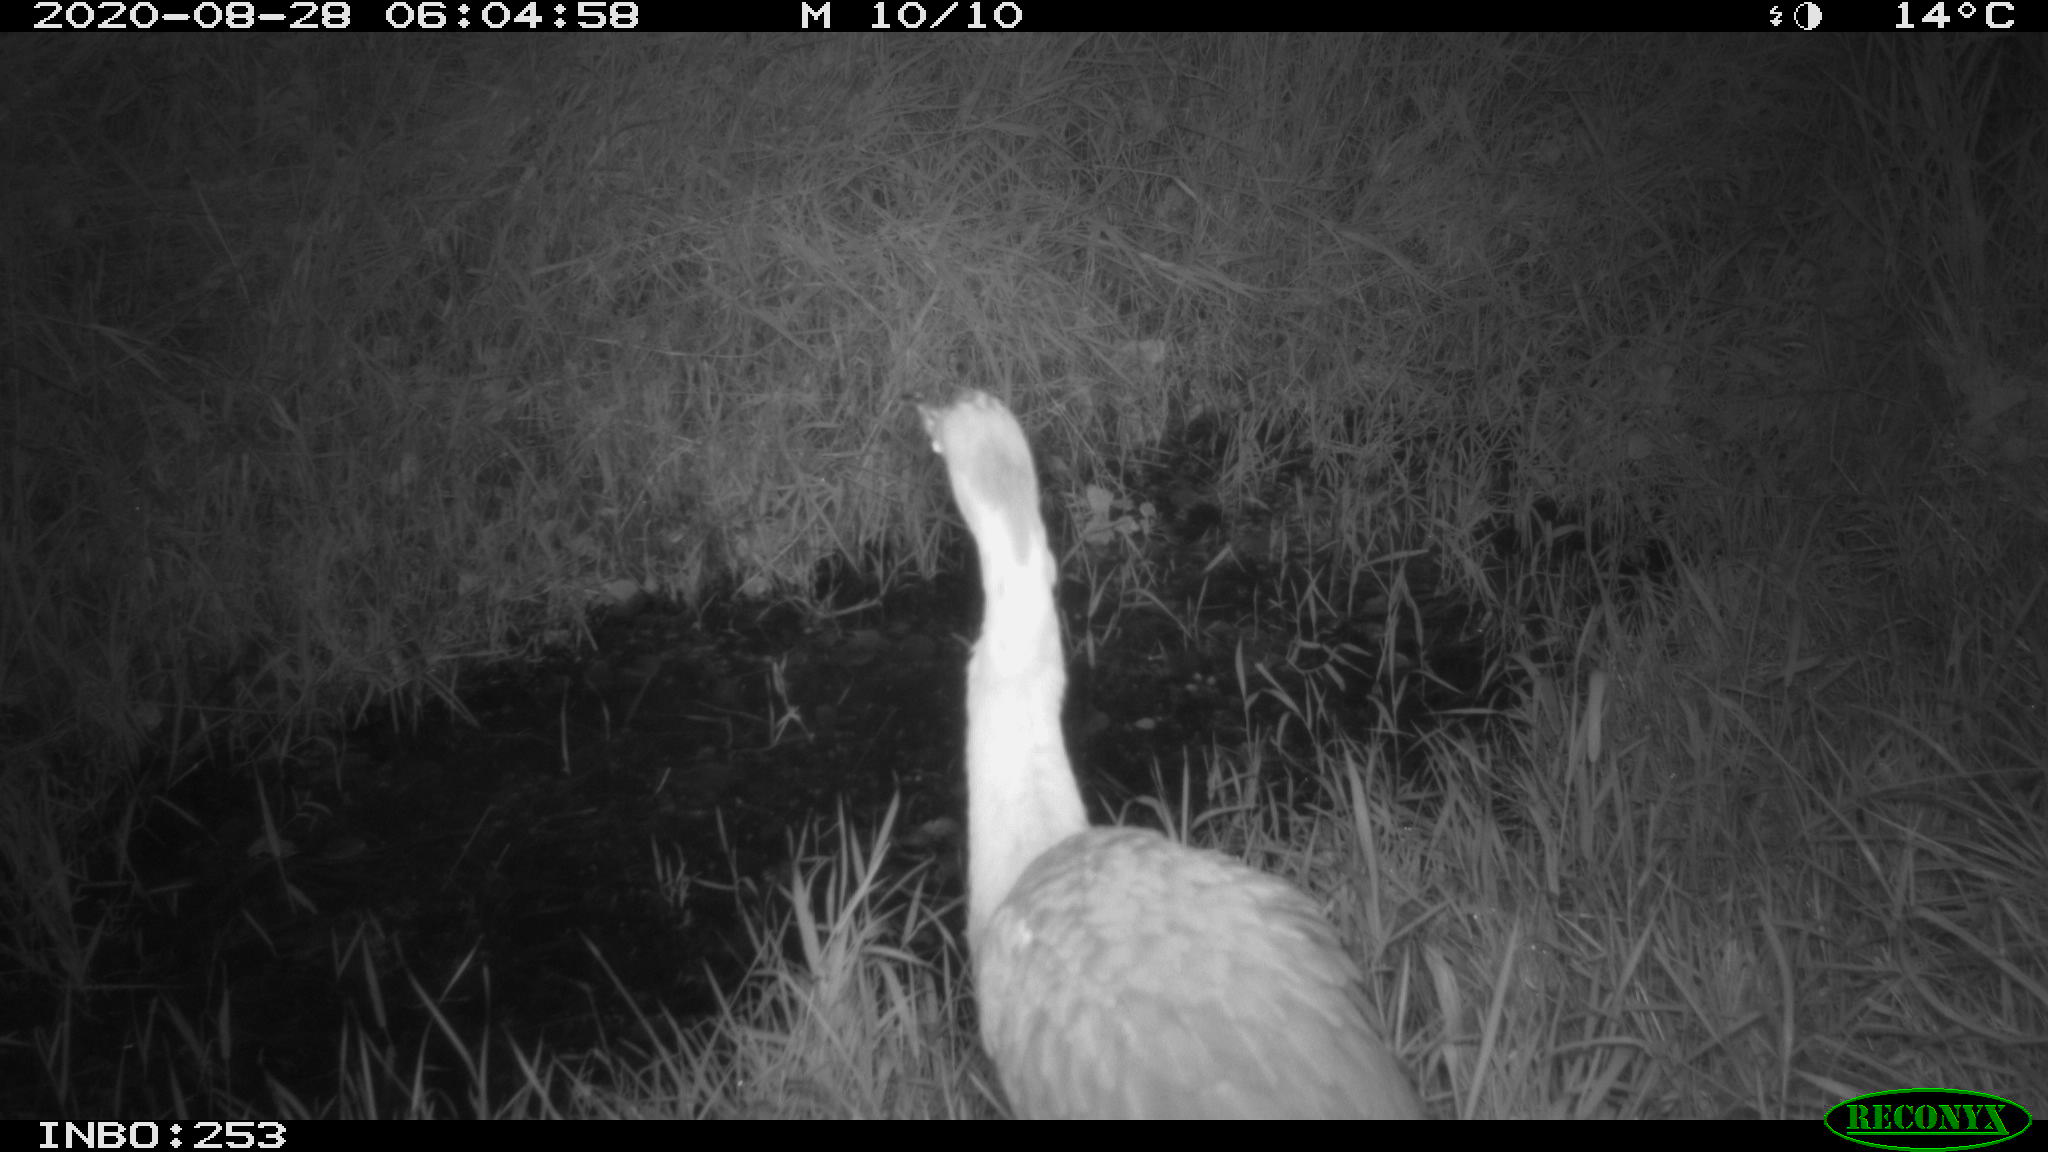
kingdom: Animalia
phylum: Chordata
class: Aves
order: Pelecaniformes
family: Ardeidae
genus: Ardea
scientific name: Ardea cinerea
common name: Grey heron
